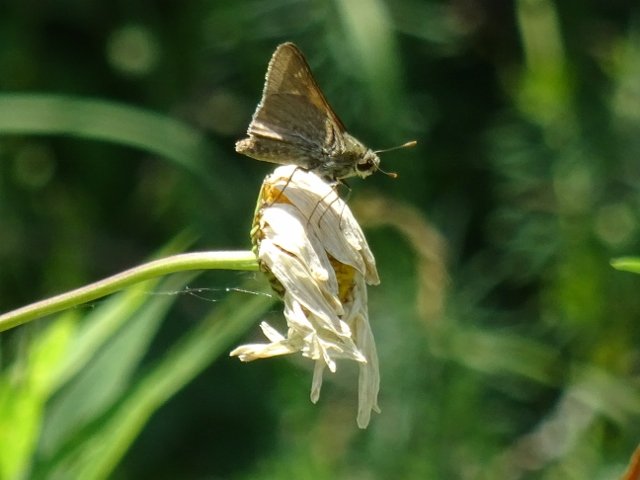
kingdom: Animalia
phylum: Arthropoda
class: Insecta
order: Lepidoptera
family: Hesperiidae
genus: Polites
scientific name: Polites themistocles
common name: Tawny-edged Skipper
